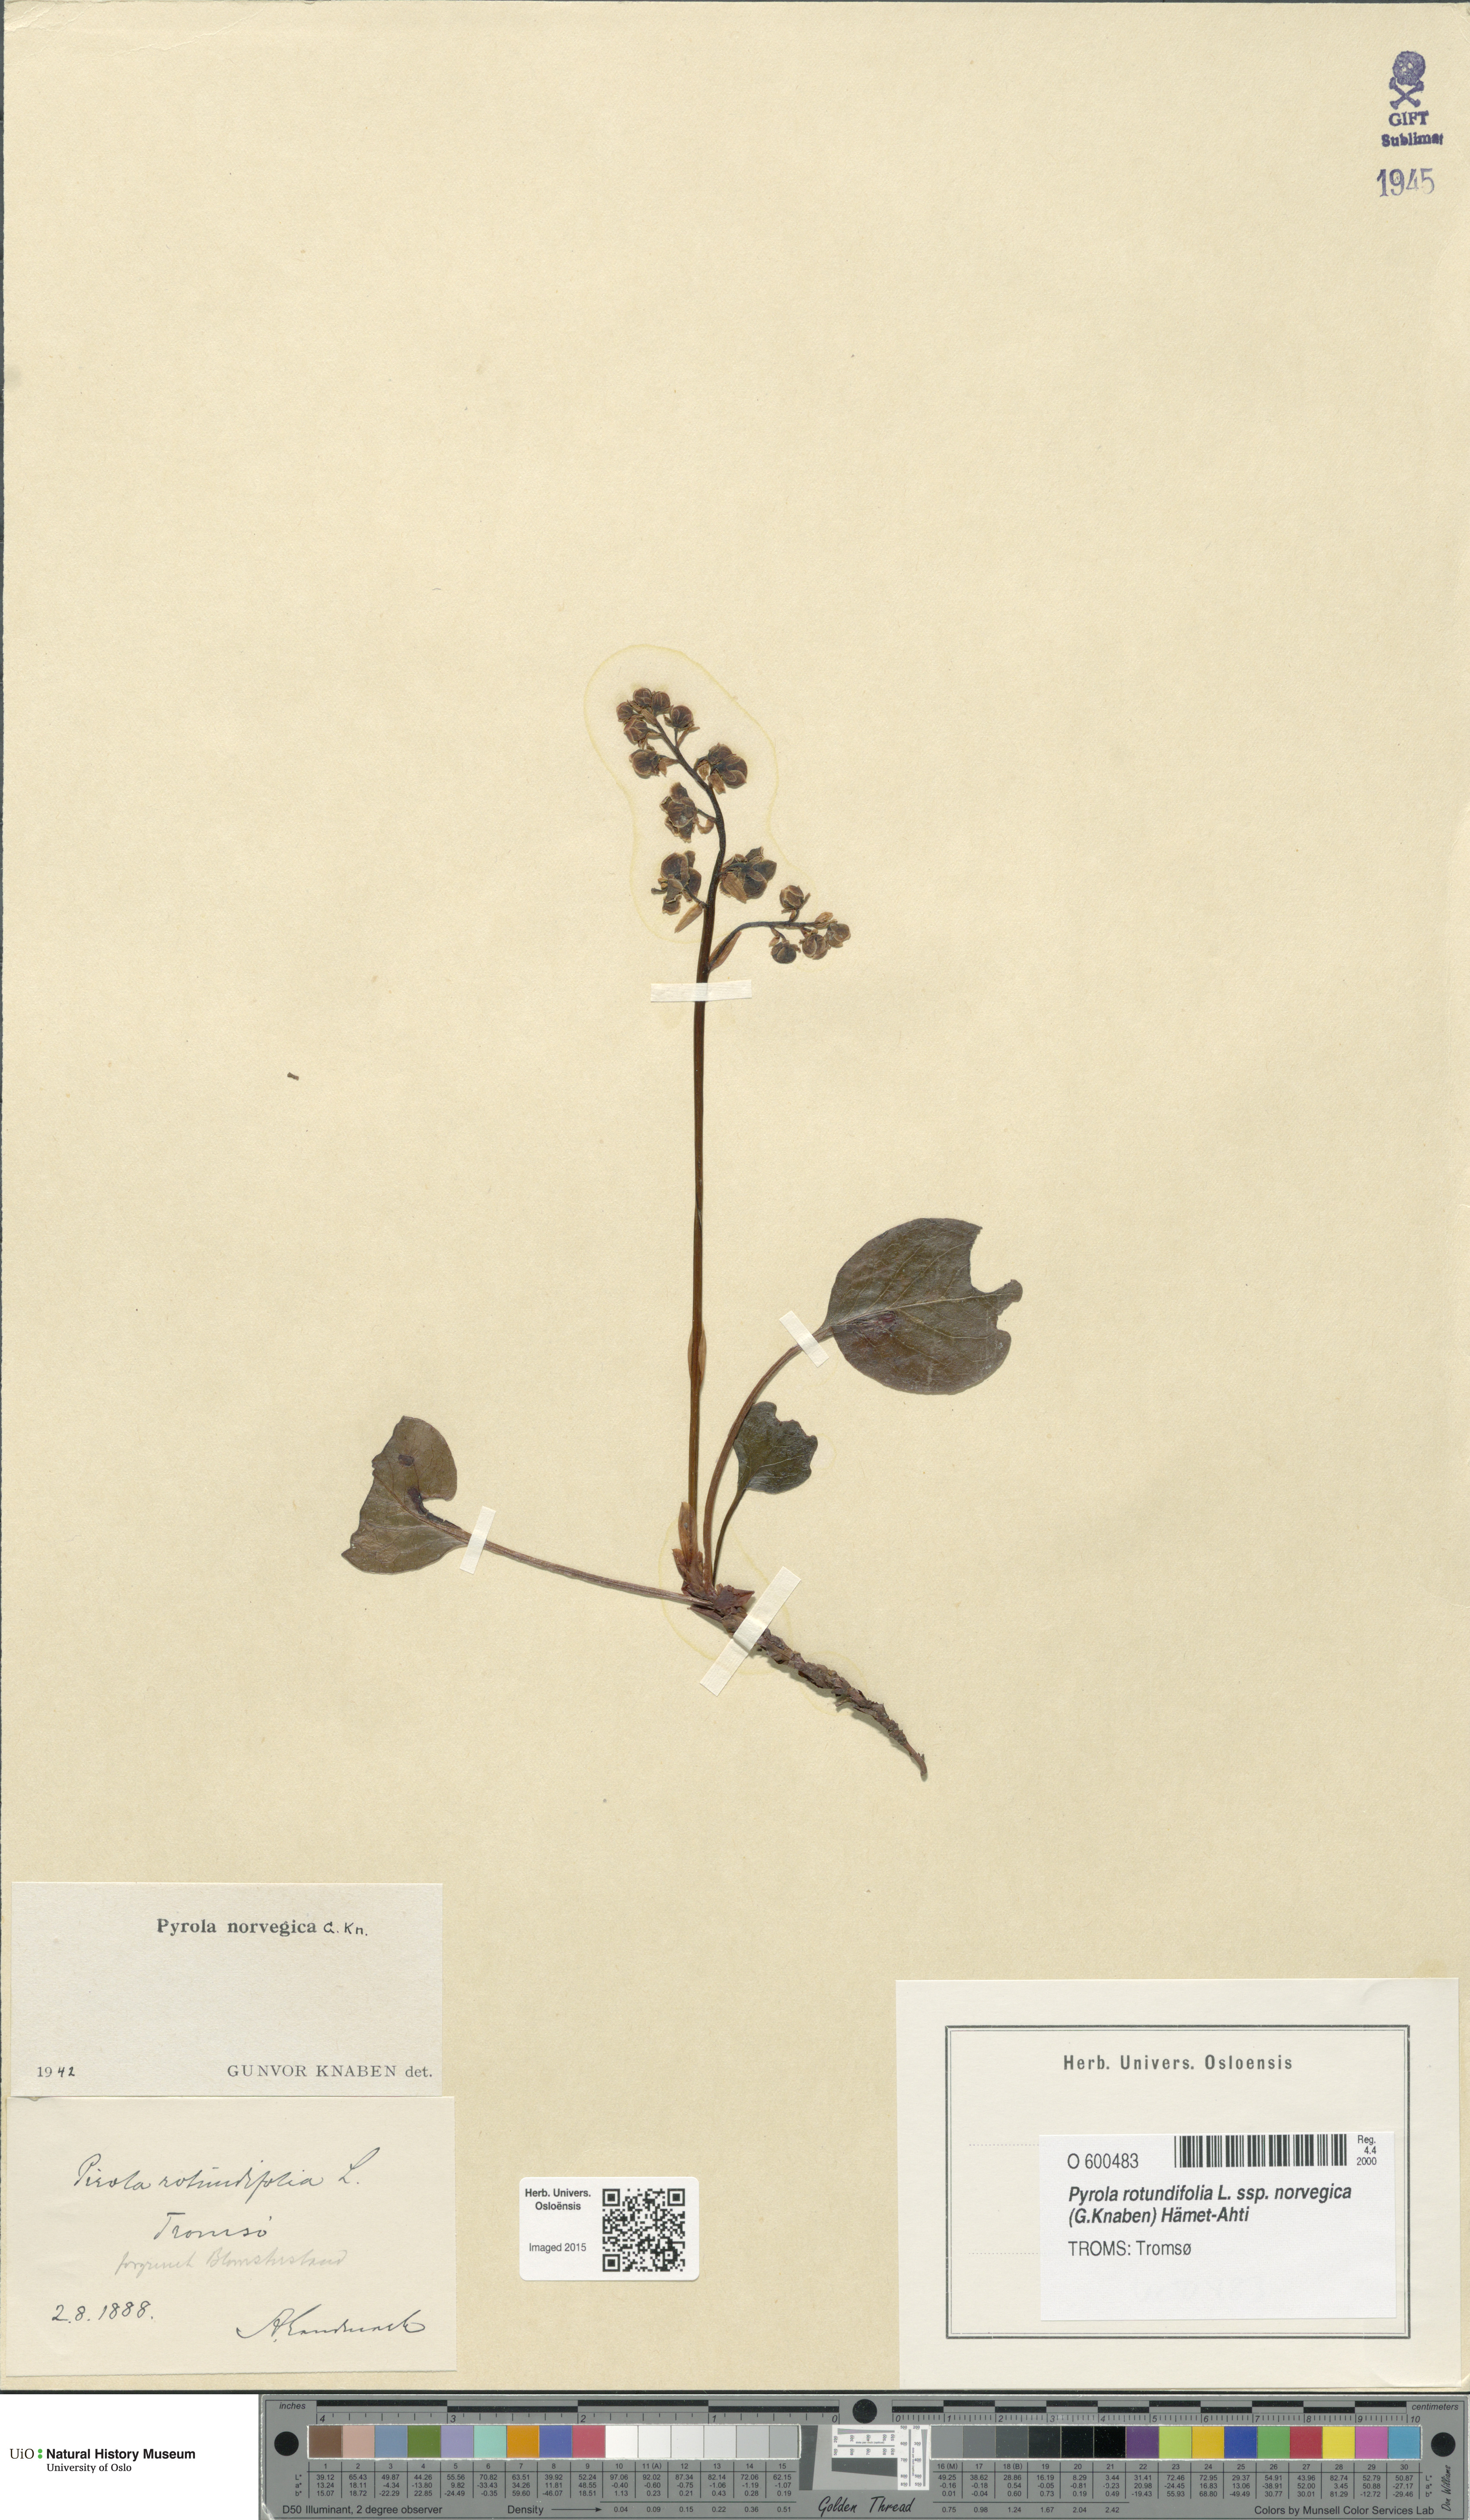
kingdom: Plantae
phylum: Tracheophyta
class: Magnoliopsida
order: Ericales
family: Ericaceae
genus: Pyrola
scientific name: Pyrola rotundifolia
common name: Round-leaved wintergreen
